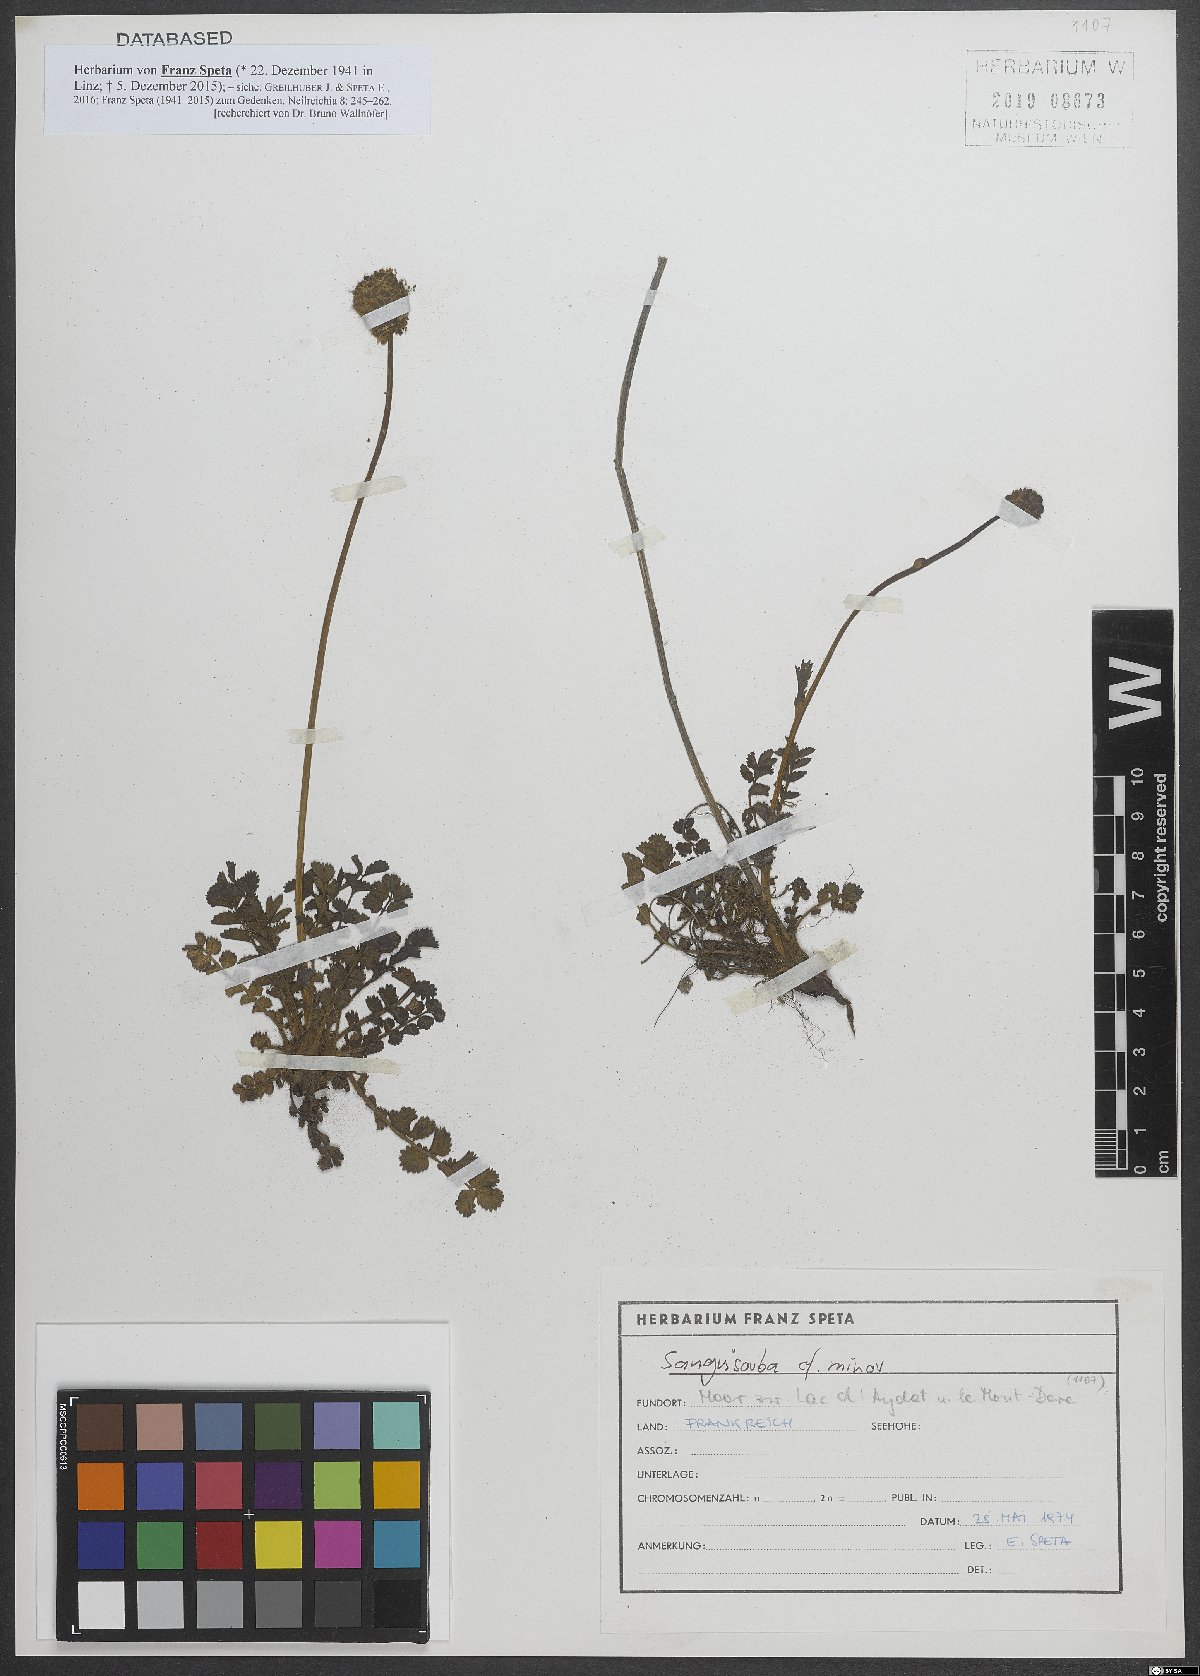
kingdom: Plantae
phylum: Tracheophyta
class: Magnoliopsida
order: Rosales
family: Rosaceae
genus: Poterium
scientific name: Poterium sanguisorba
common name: Salad burnet
